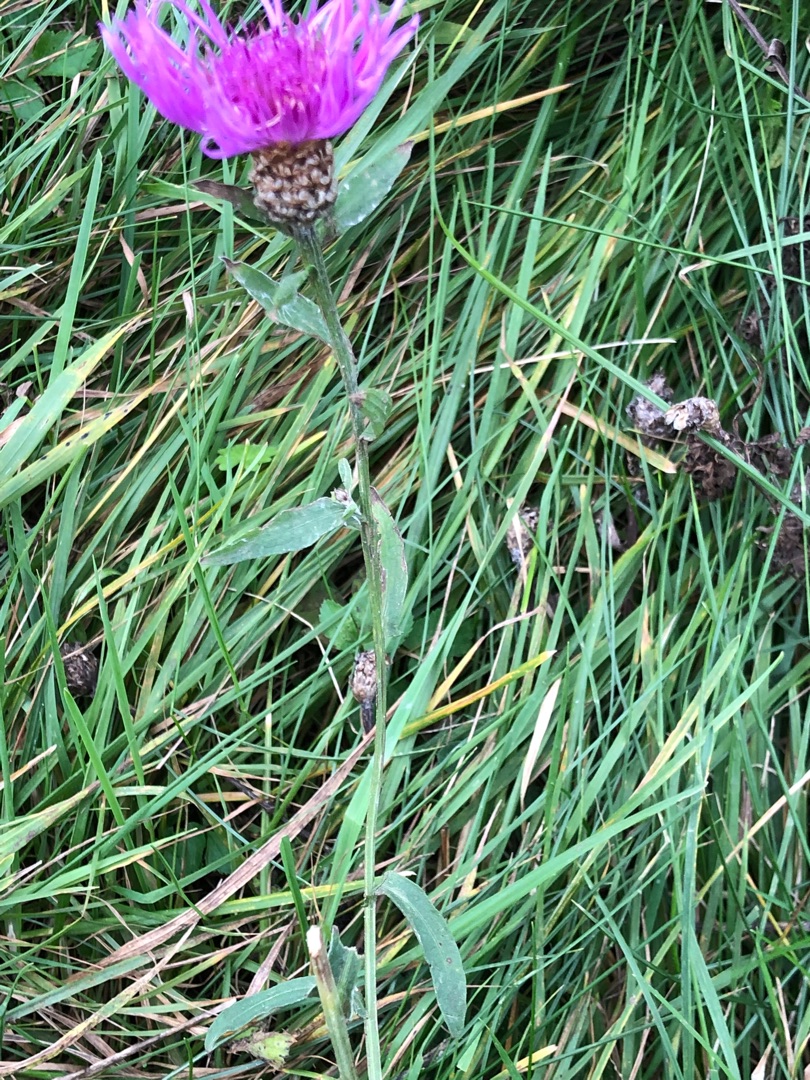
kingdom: Plantae
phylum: Tracheophyta
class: Magnoliopsida
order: Asterales
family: Asteraceae
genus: Centaurea
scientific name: Centaurea jacea
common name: Almindelig knopurt
